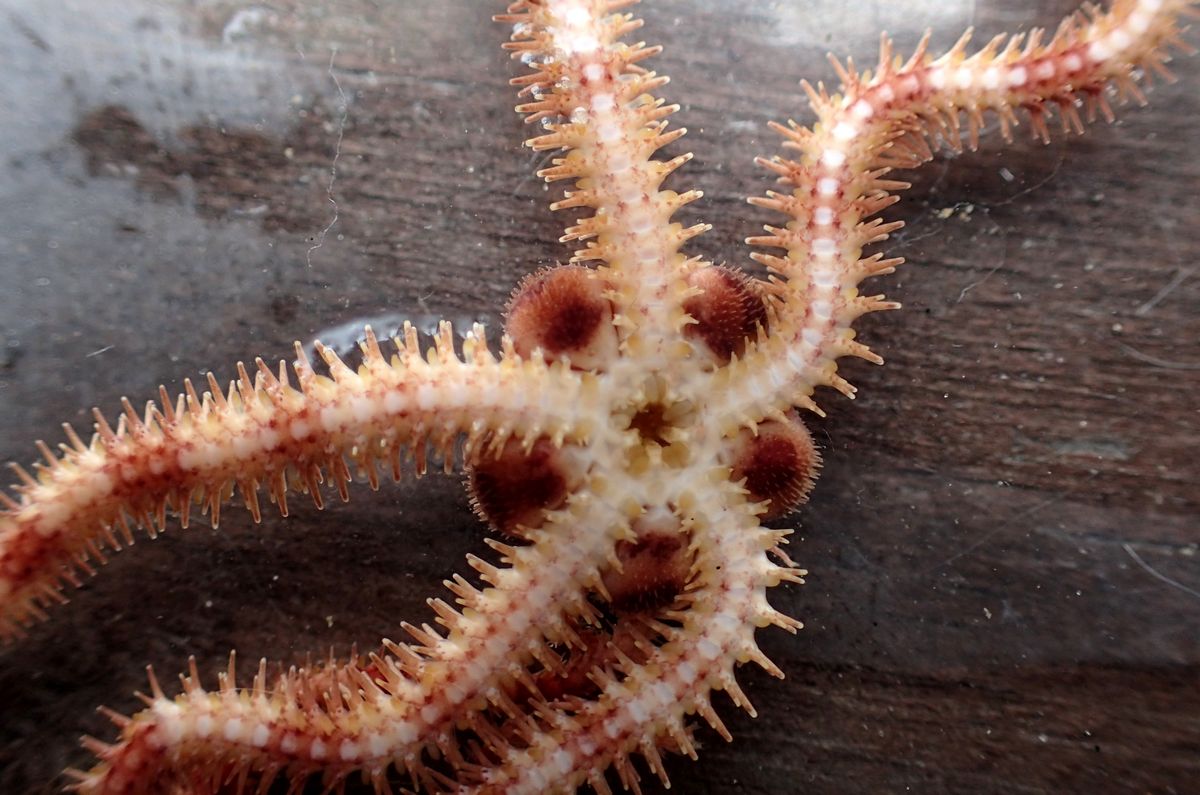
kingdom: Animalia
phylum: Echinodermata
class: Ophiuroidea
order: Amphilepidida
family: Ophiopholidae
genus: Ophiopholis
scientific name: Ophiopholis aculeata
